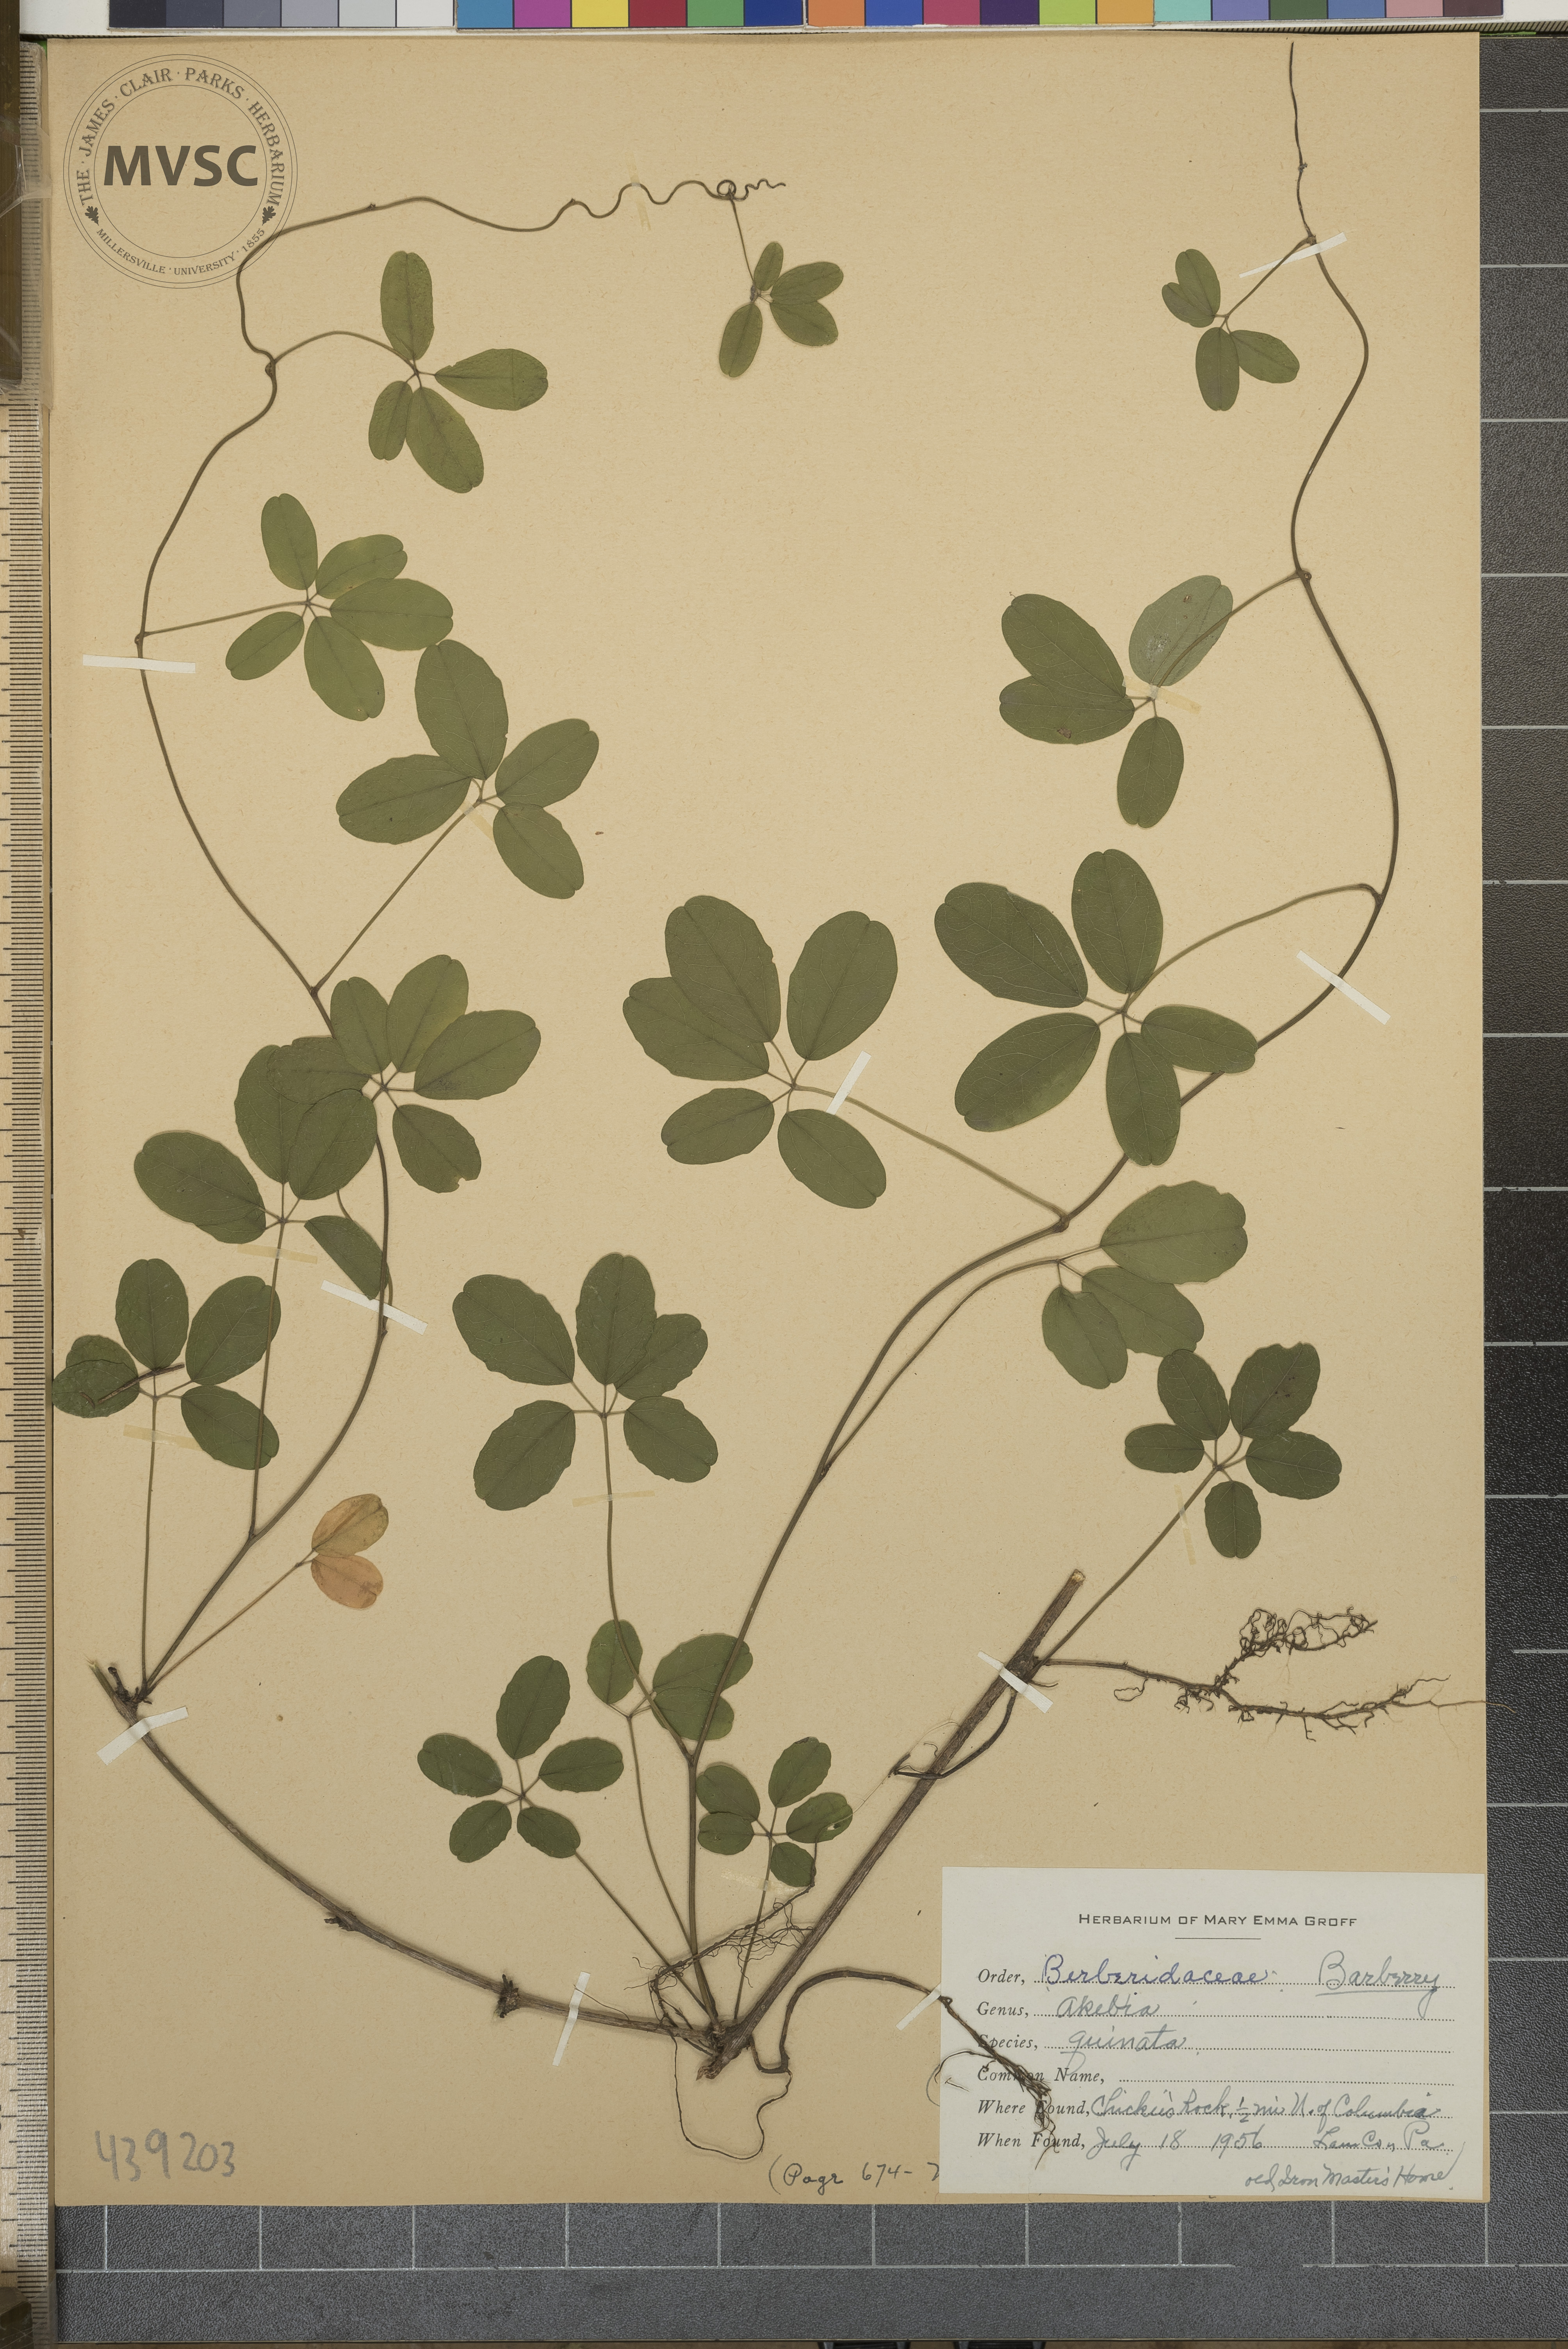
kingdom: Plantae
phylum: Tracheophyta
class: Magnoliopsida
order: Ranunculales
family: Lardizabalaceae
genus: Akebia
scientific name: Akebia quinata
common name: Five-leaf akebia
